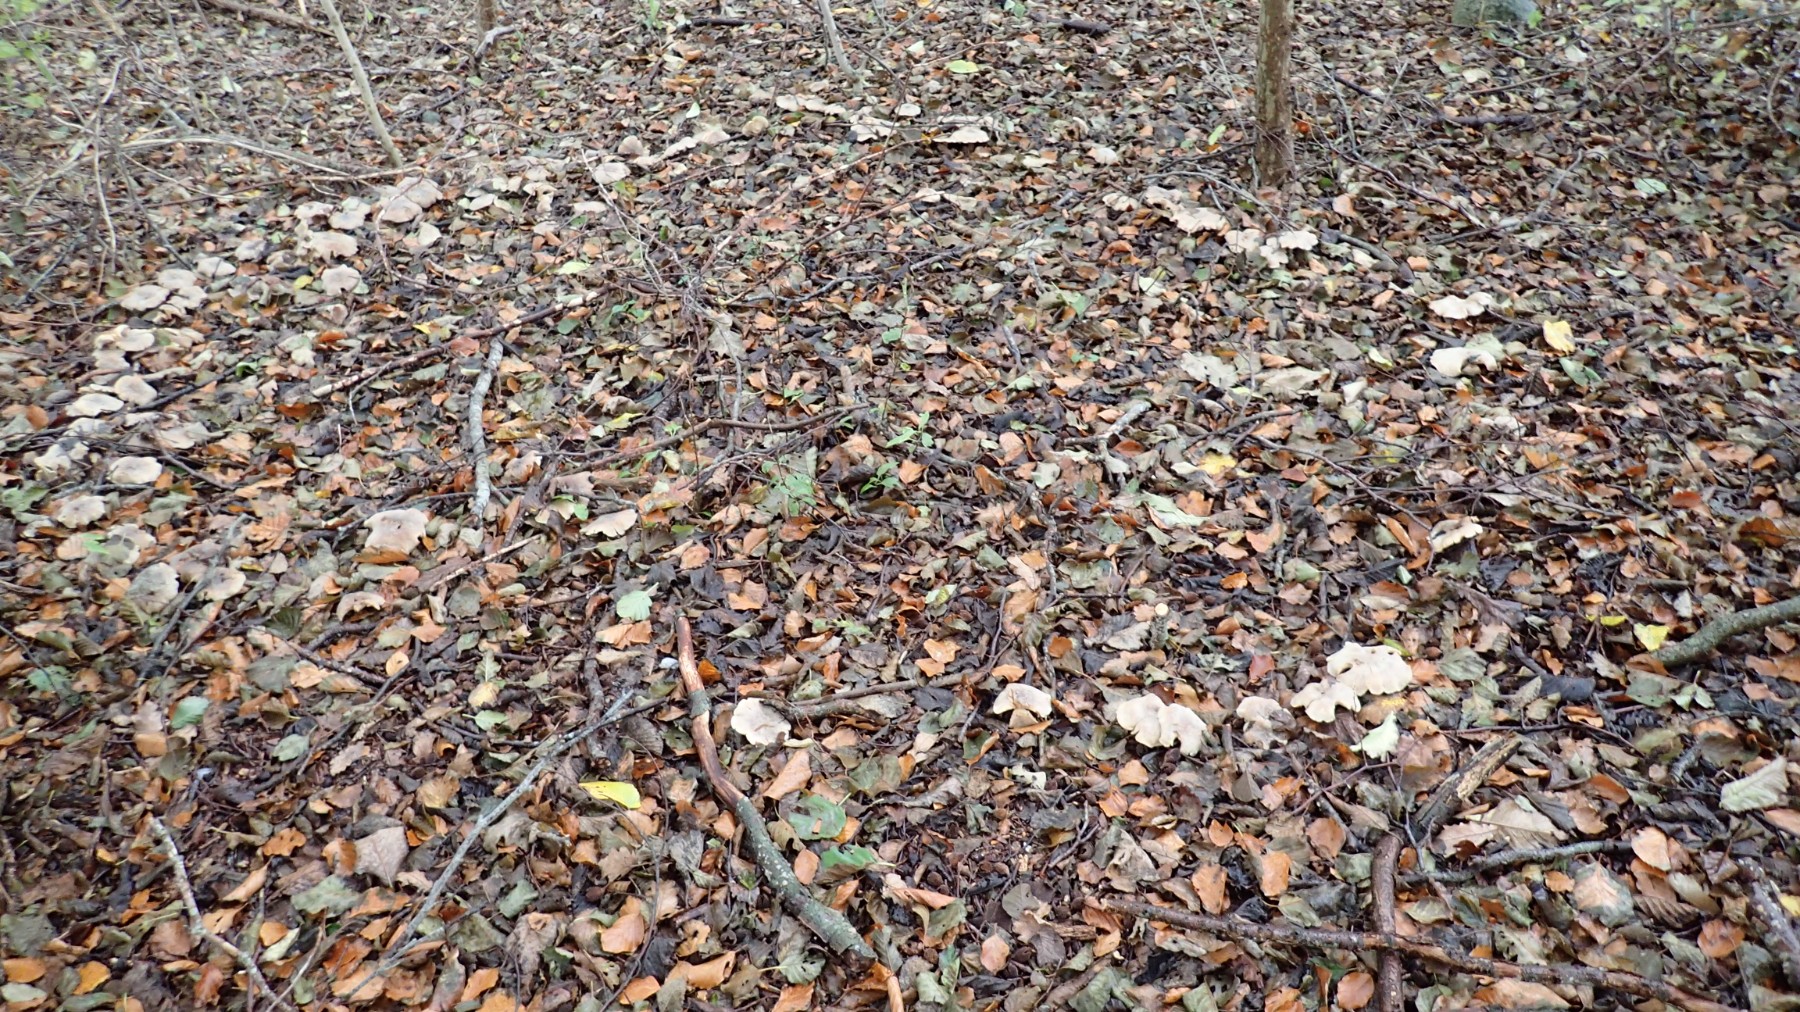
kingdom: Fungi
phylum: Basidiomycota
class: Agaricomycetes
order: Agaricales
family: Tricholomataceae
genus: Clitocybe
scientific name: Clitocybe nebularis
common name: tåge-tragthat
